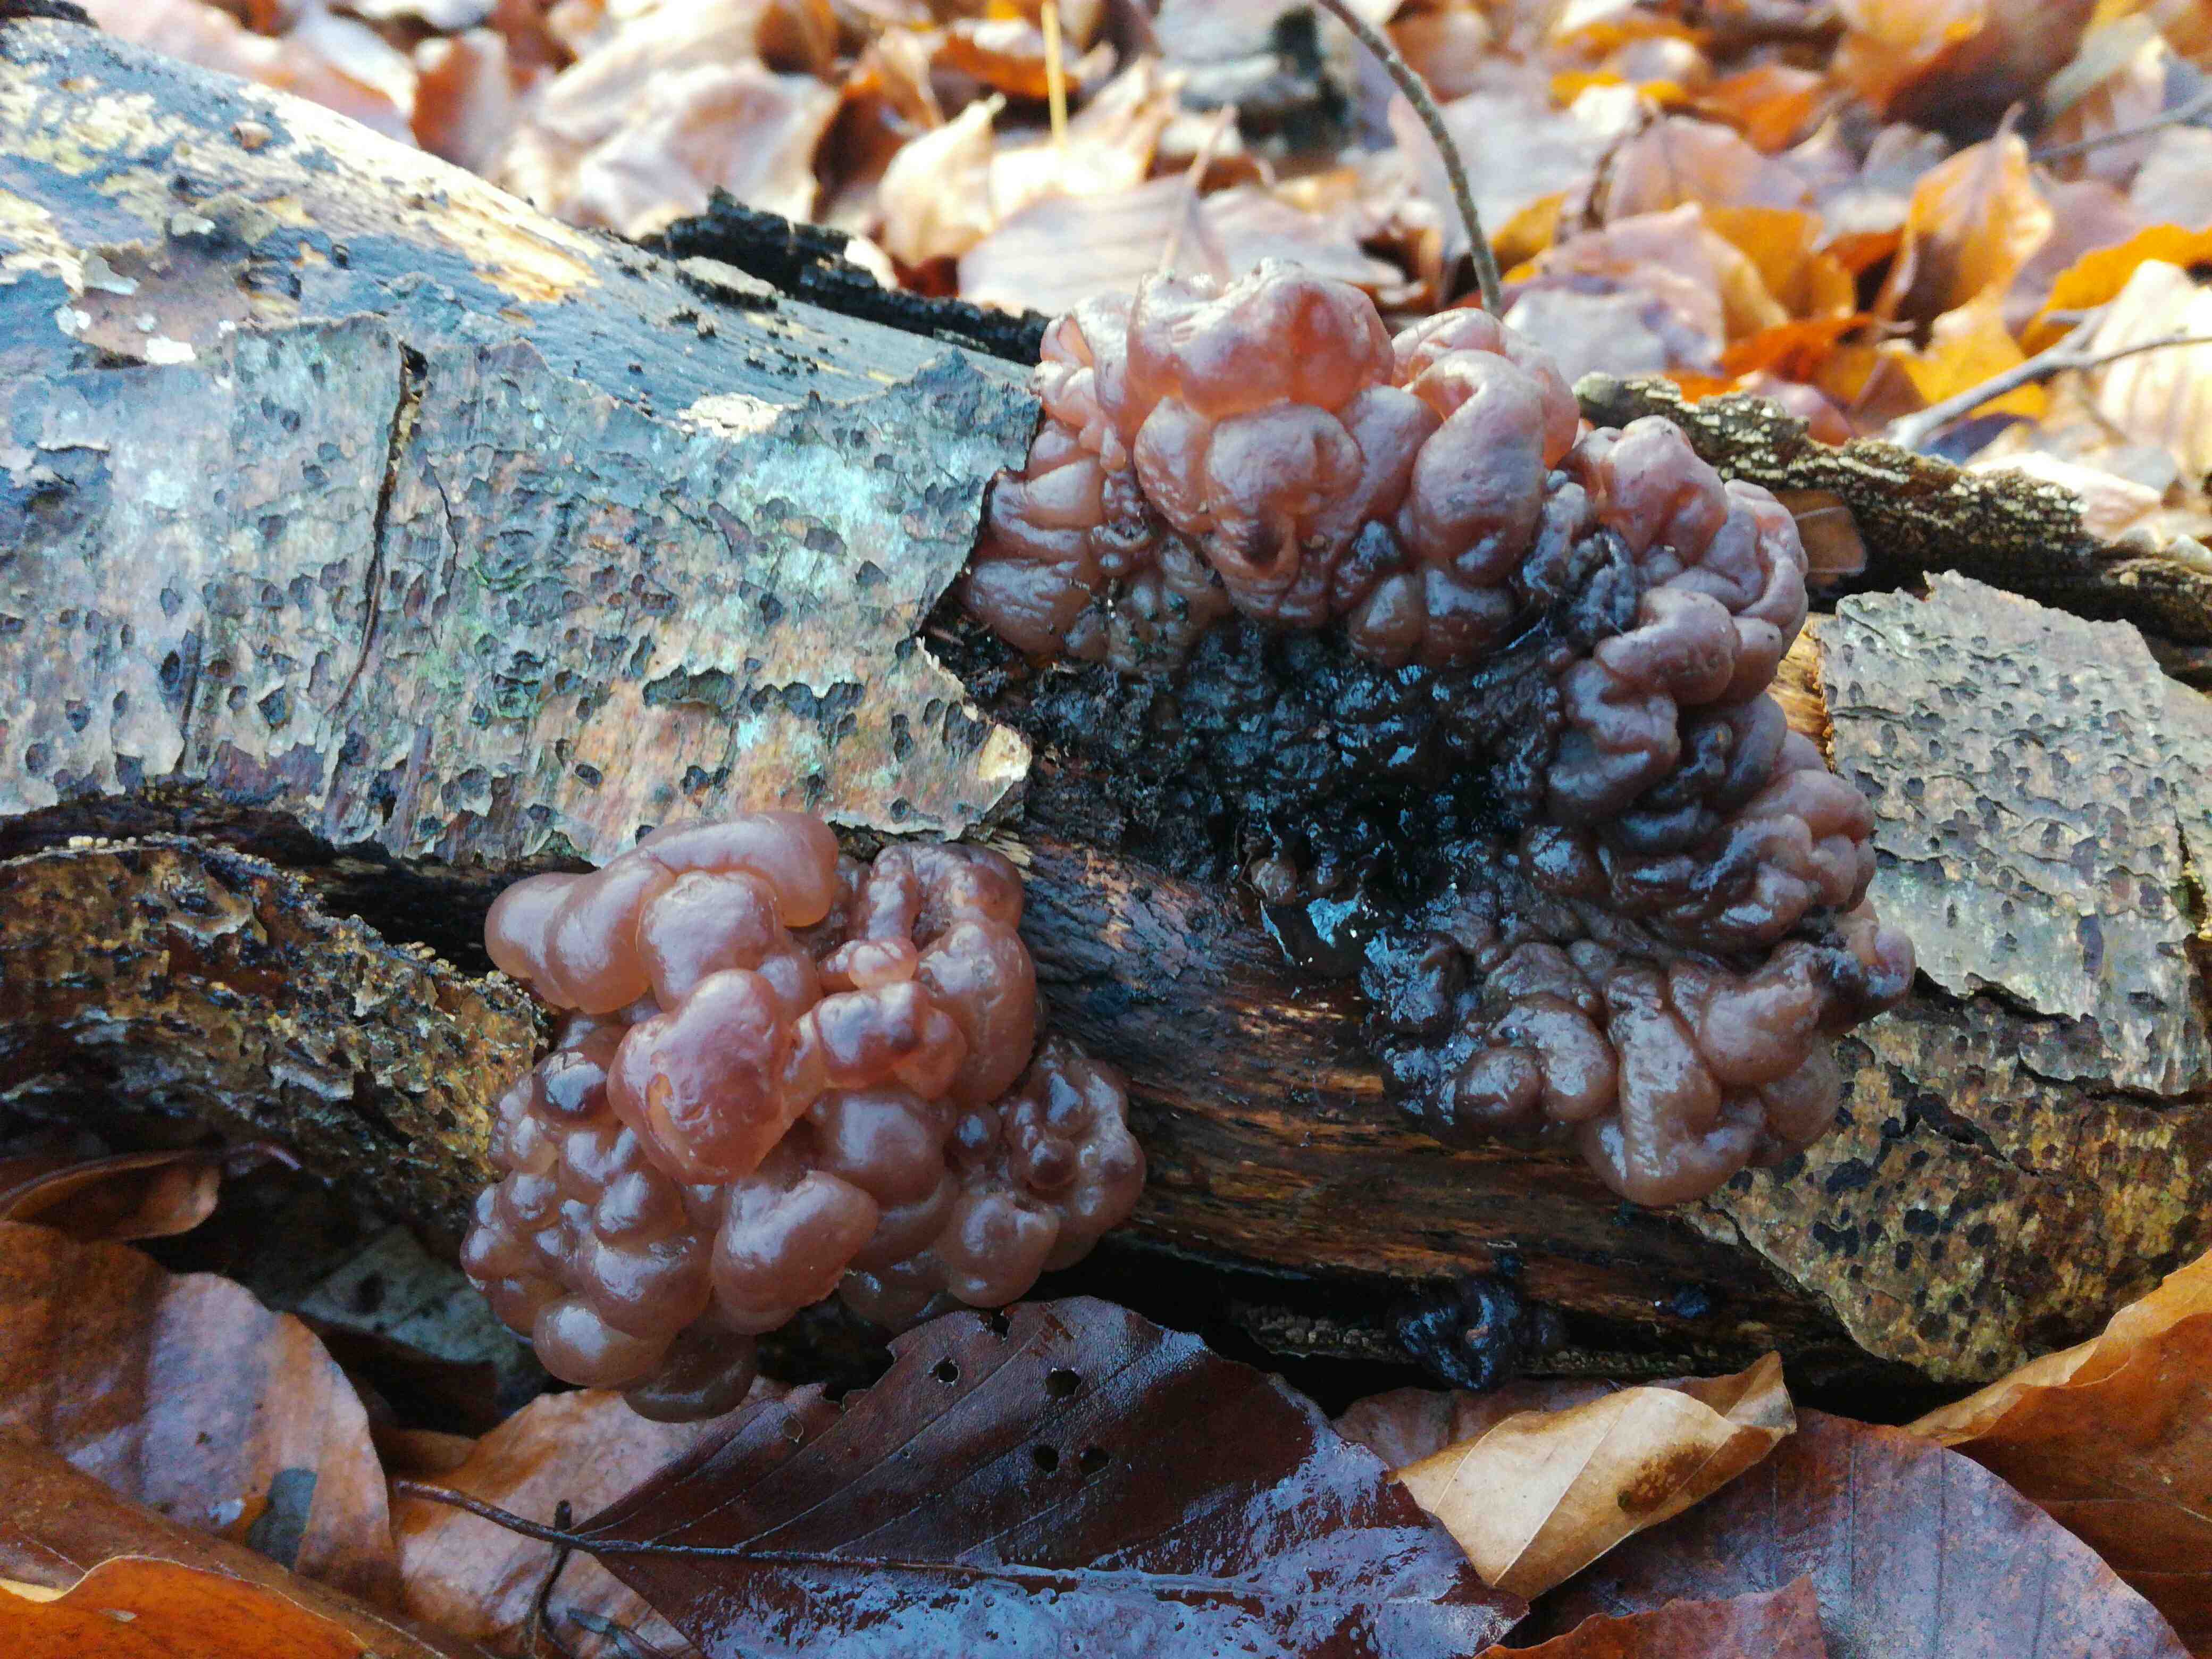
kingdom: Fungi
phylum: Ascomycota
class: Leotiomycetes
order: Helotiales
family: Gelatinodiscaceae
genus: Ascotremella
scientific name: Ascotremella faginea
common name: hjerne-bævreskive
